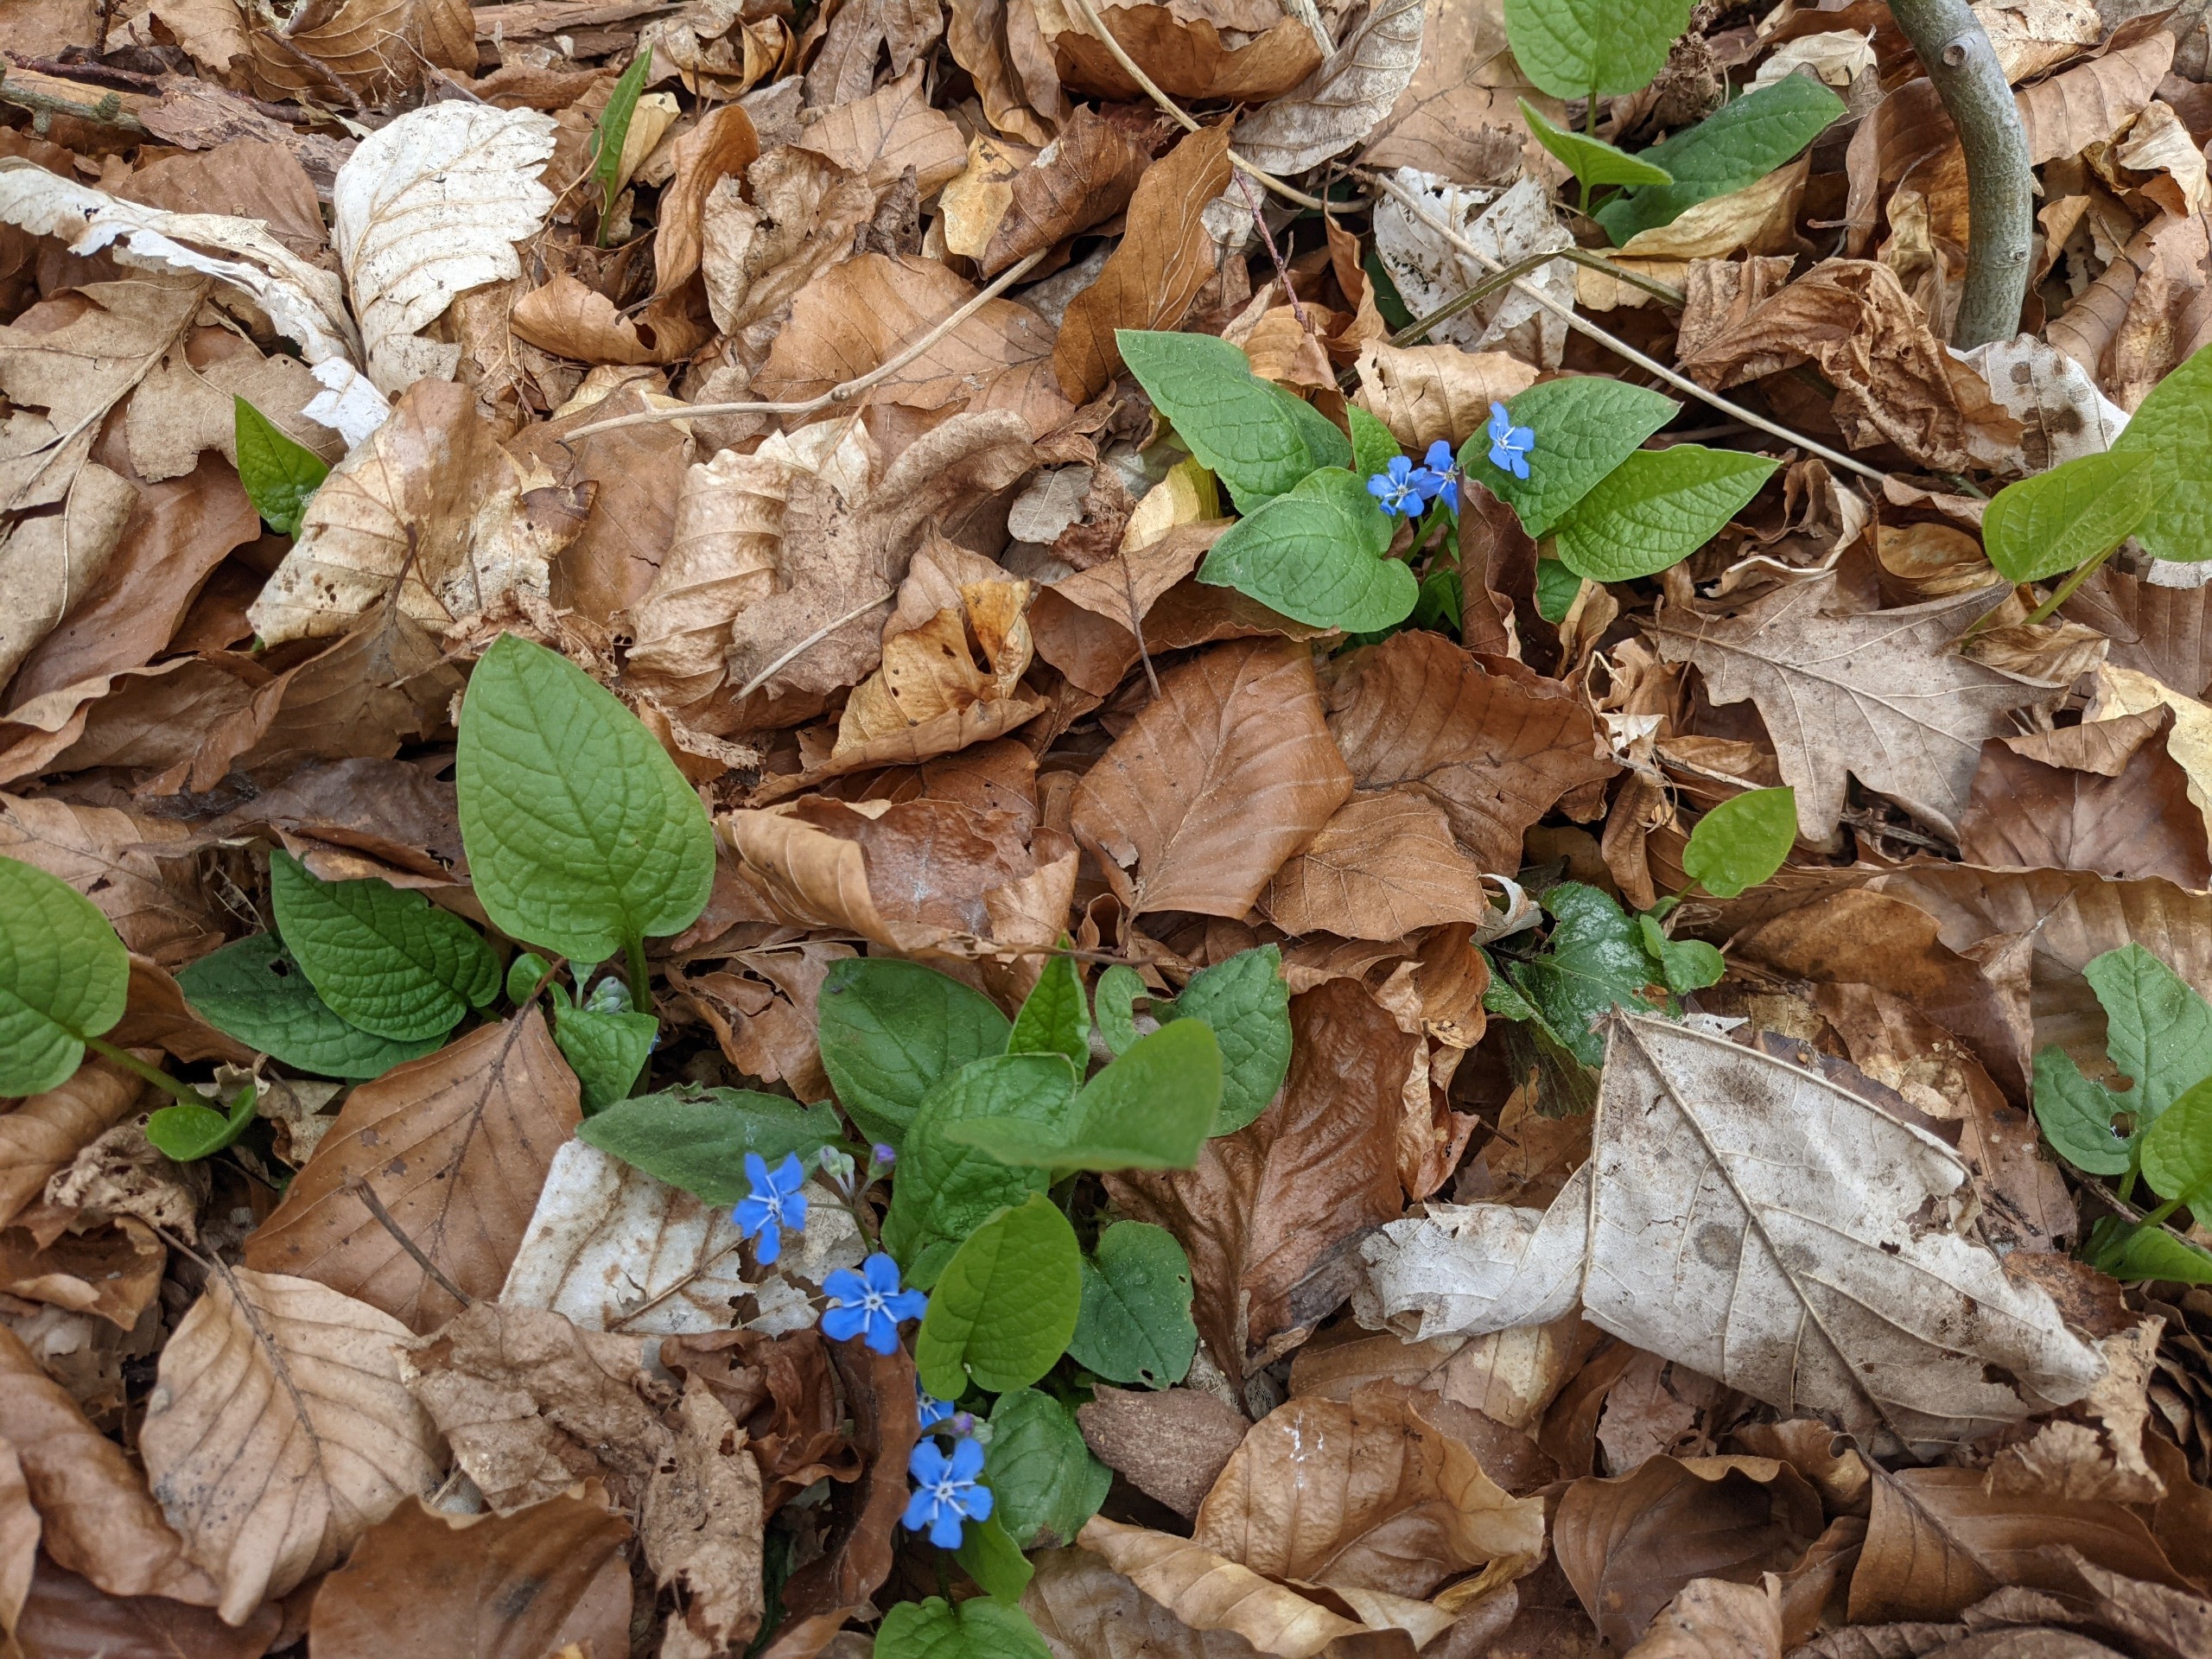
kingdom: Plantae
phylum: Tracheophyta
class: Magnoliopsida
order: Boraginales
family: Boraginaceae
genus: Omphalodes
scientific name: Omphalodes verna
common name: Vår-kærminde
